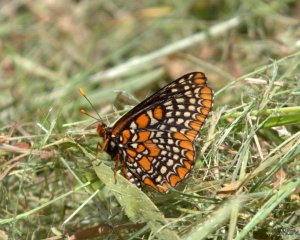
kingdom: Animalia
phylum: Arthropoda
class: Insecta
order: Lepidoptera
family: Nymphalidae
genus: Euphydryas
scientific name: Euphydryas phaeton
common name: Baltimore Checkerspot
